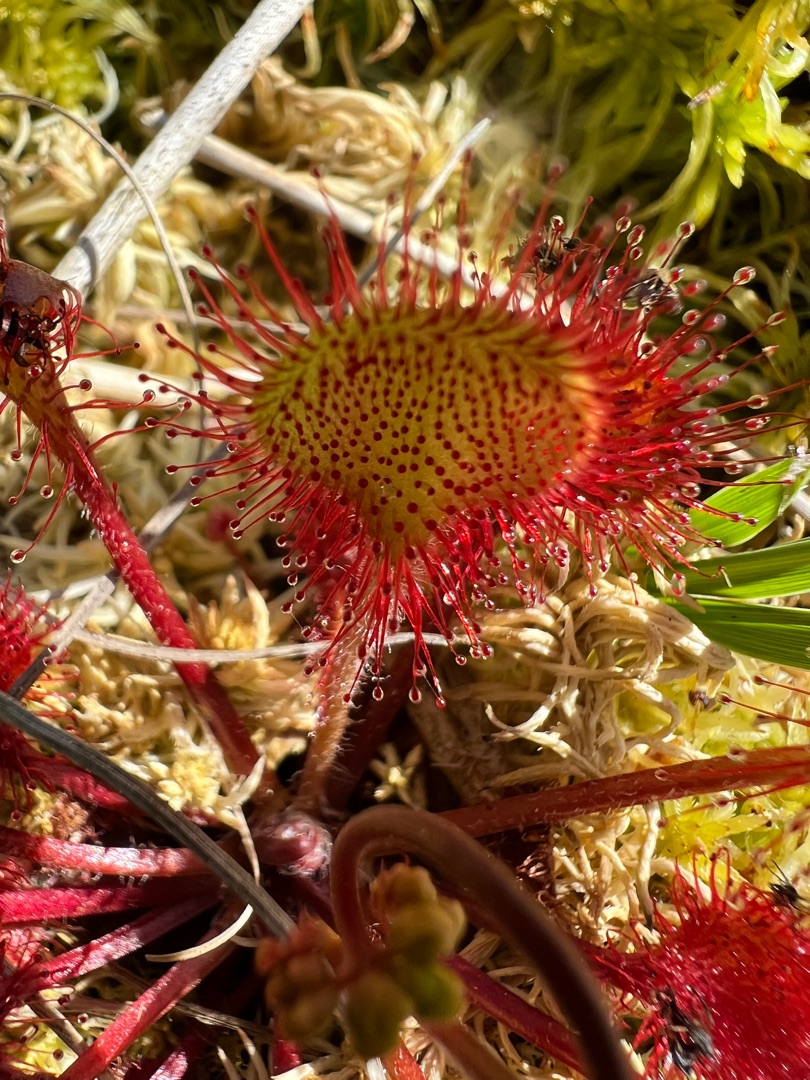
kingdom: Plantae
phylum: Tracheophyta
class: Magnoliopsida
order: Caryophyllales
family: Droseraceae
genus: Drosera
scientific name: Drosera rotundifolia
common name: Rundbladet soldug
